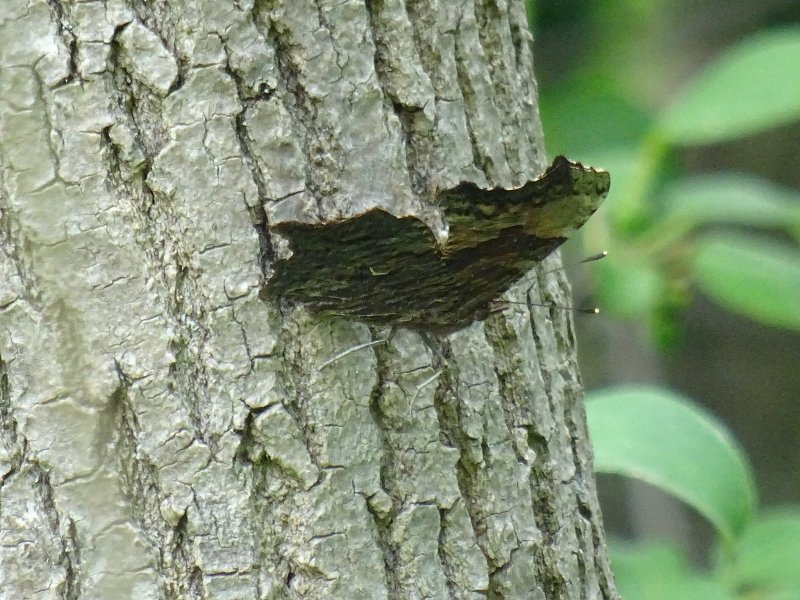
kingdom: Animalia
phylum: Arthropoda
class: Insecta
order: Lepidoptera
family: Nymphalidae
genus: Polygonia
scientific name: Polygonia progne
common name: Gray Comma
